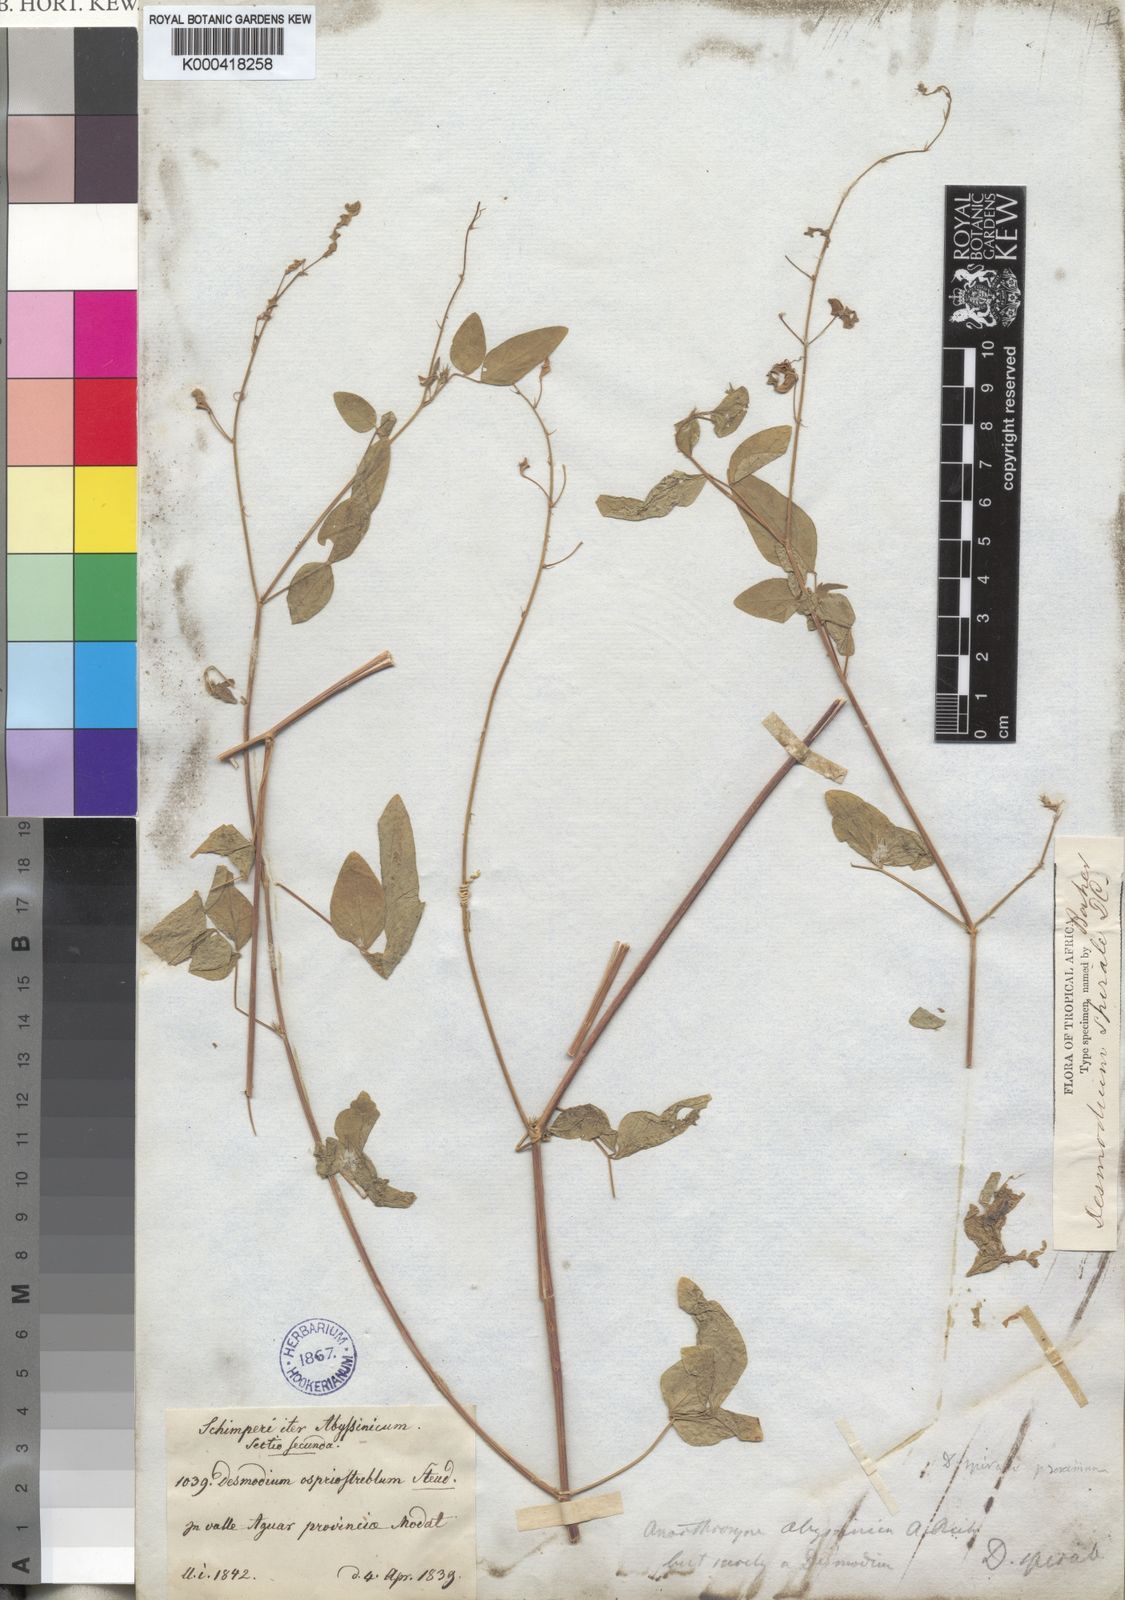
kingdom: Plantae
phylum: Tracheophyta
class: Magnoliopsida
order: Fabales
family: Fabaceae
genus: Desmodium
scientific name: Desmodium
